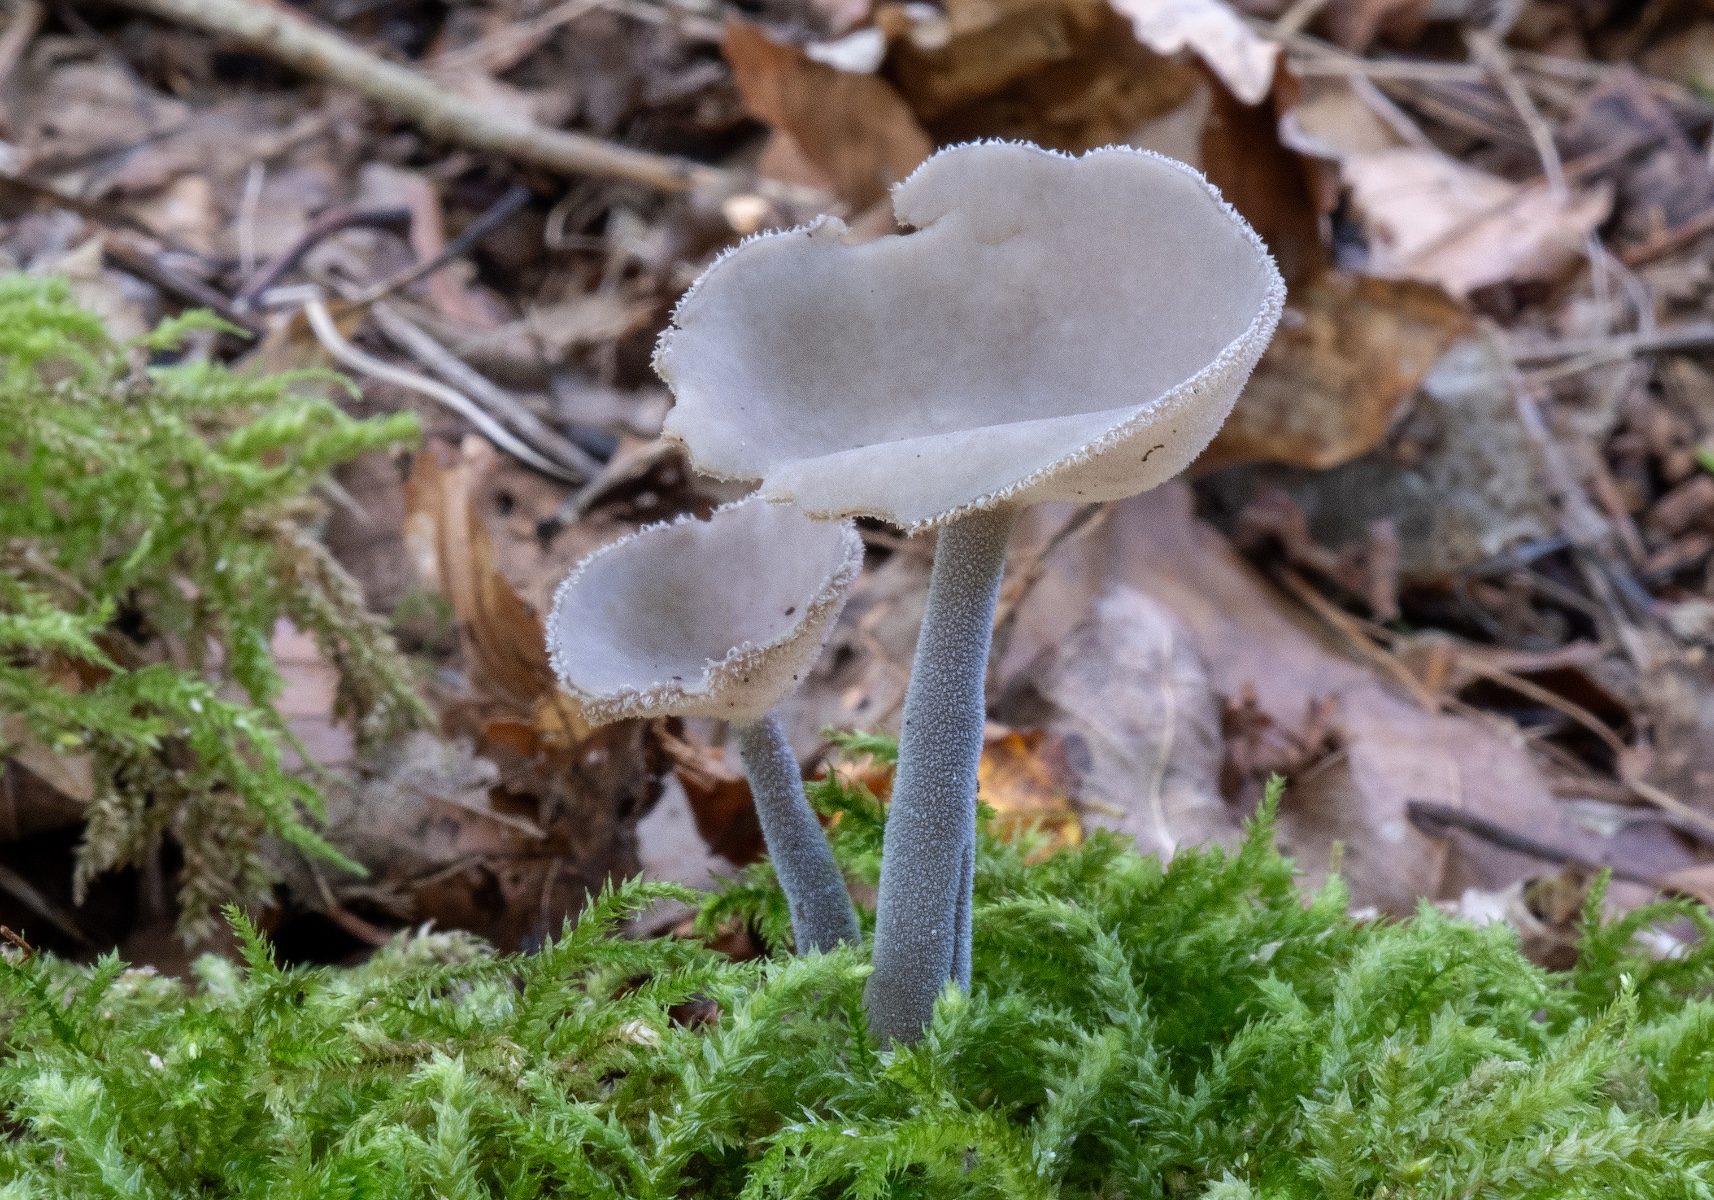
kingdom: Fungi
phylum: Ascomycota
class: Pezizomycetes
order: Pezizales
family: Helvellaceae
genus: Helvella
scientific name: Helvella macropus
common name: højstokket foldhat
